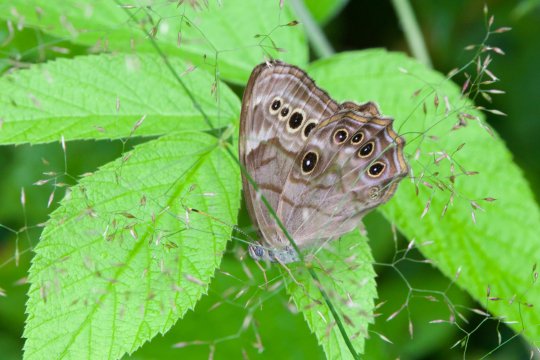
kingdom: Animalia
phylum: Arthropoda
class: Insecta
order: Lepidoptera
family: Nymphalidae
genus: Lethe
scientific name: Lethe anthedon
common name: Northern Pearly-Eye
